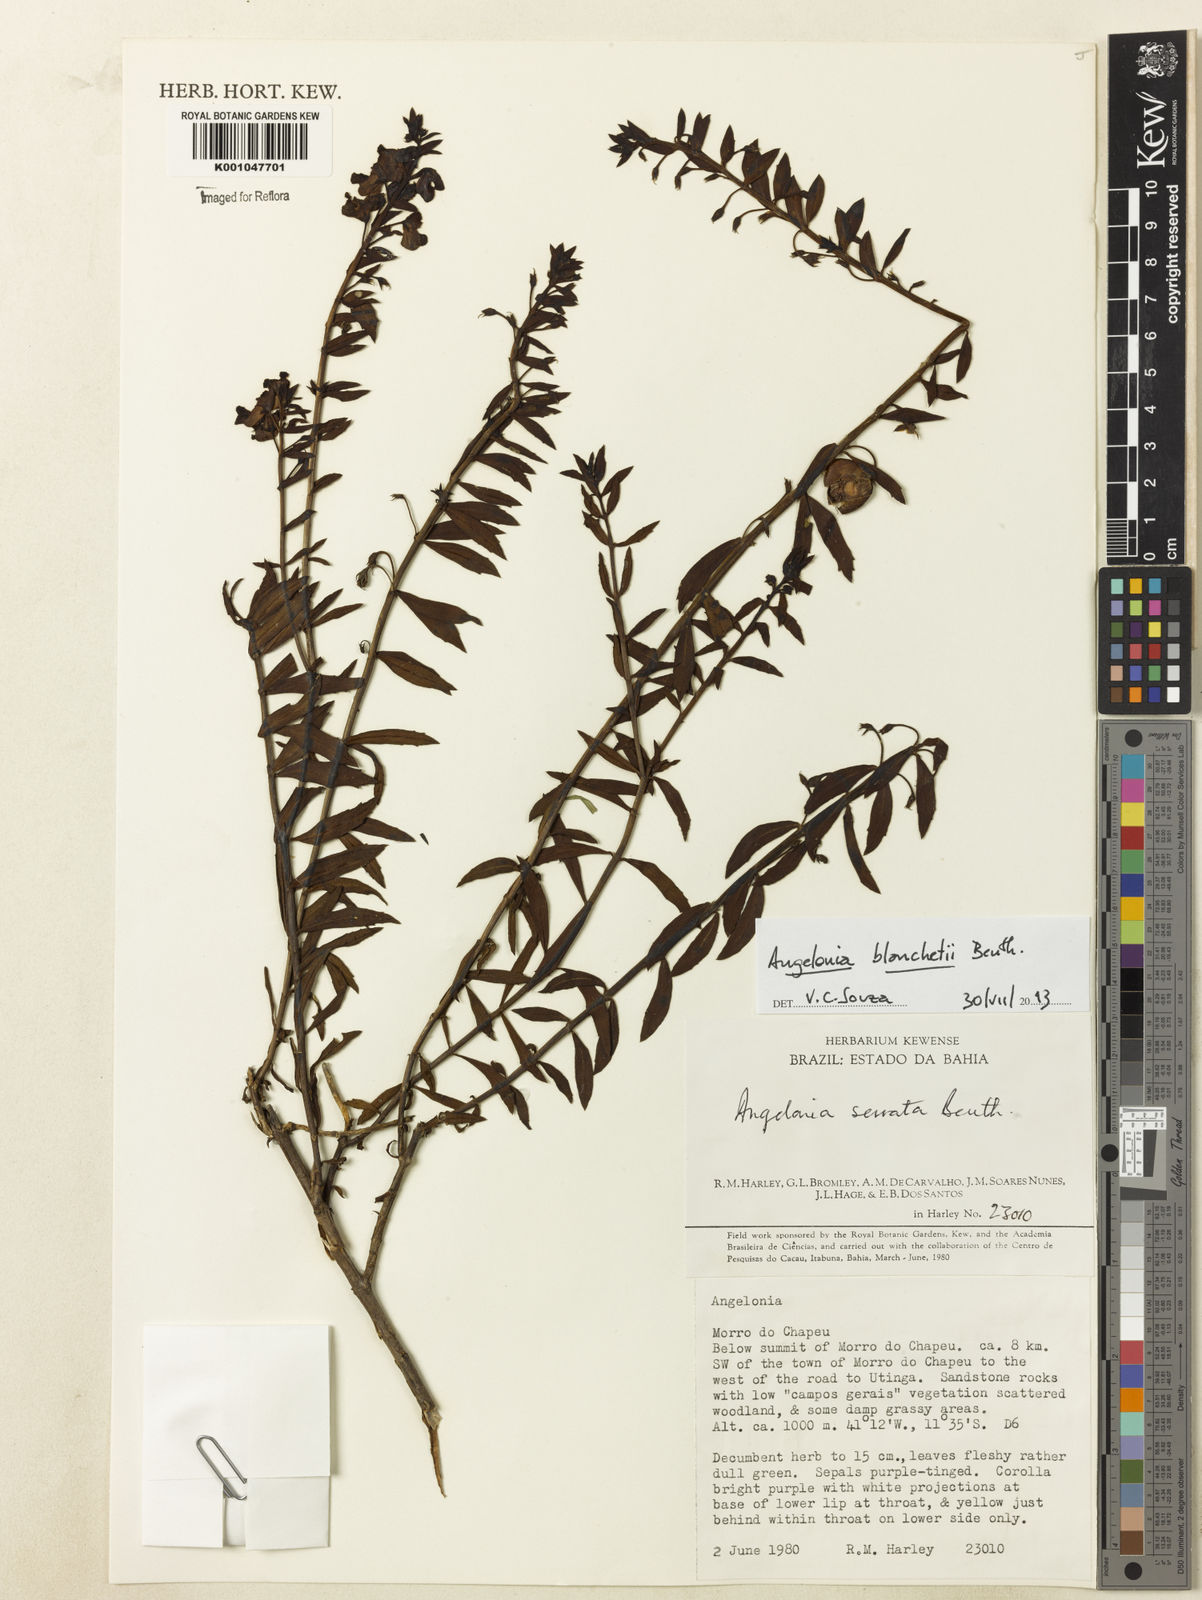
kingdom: Plantae
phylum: Tracheophyta
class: Magnoliopsida
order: Lamiales
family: Plantaginaceae
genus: Angelonia
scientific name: Angelonia blanchetii
